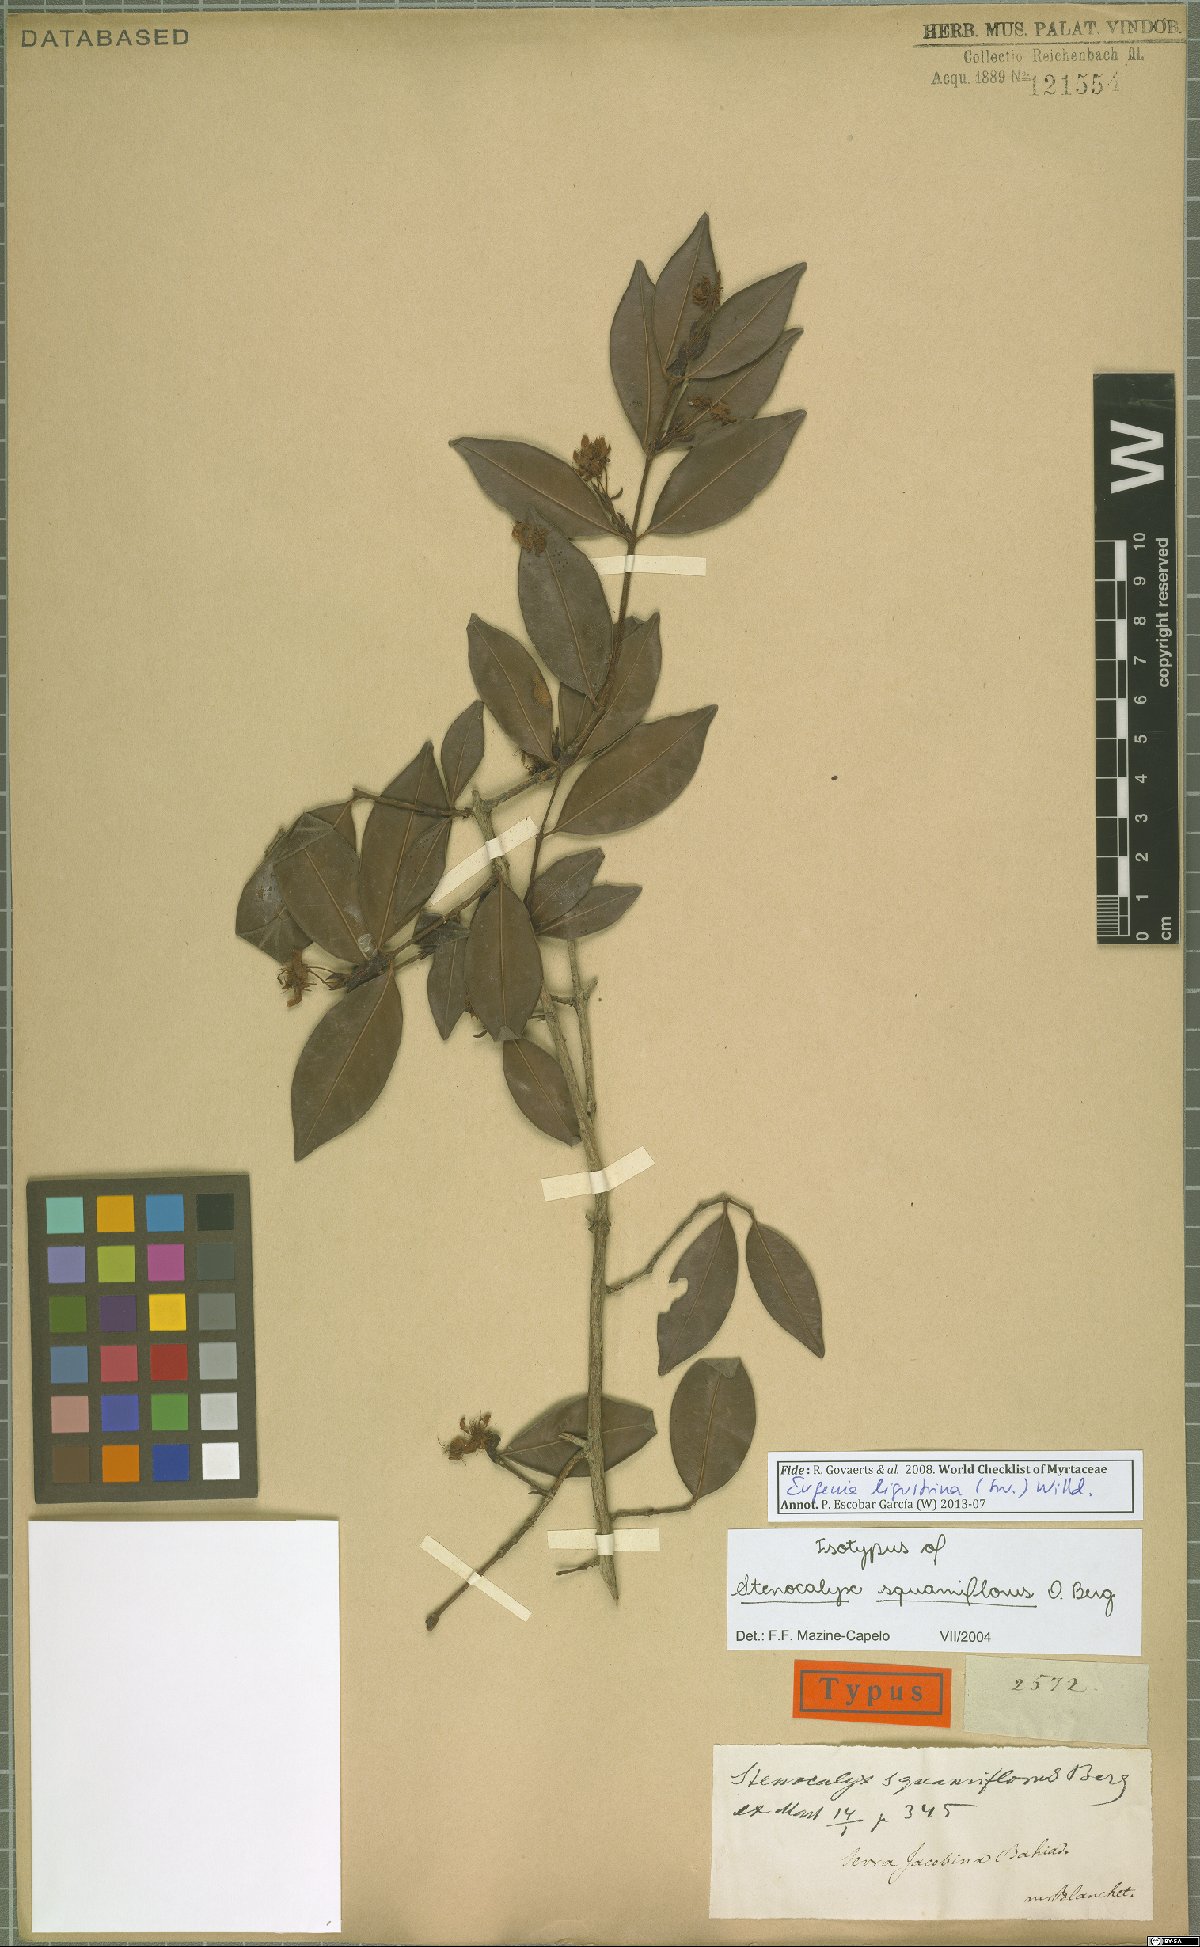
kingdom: Plantae
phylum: Tracheophyta
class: Magnoliopsida
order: Myrtales
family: Myrtaceae
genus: Eugenia
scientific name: Eugenia ligustrina
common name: Privet stopper
